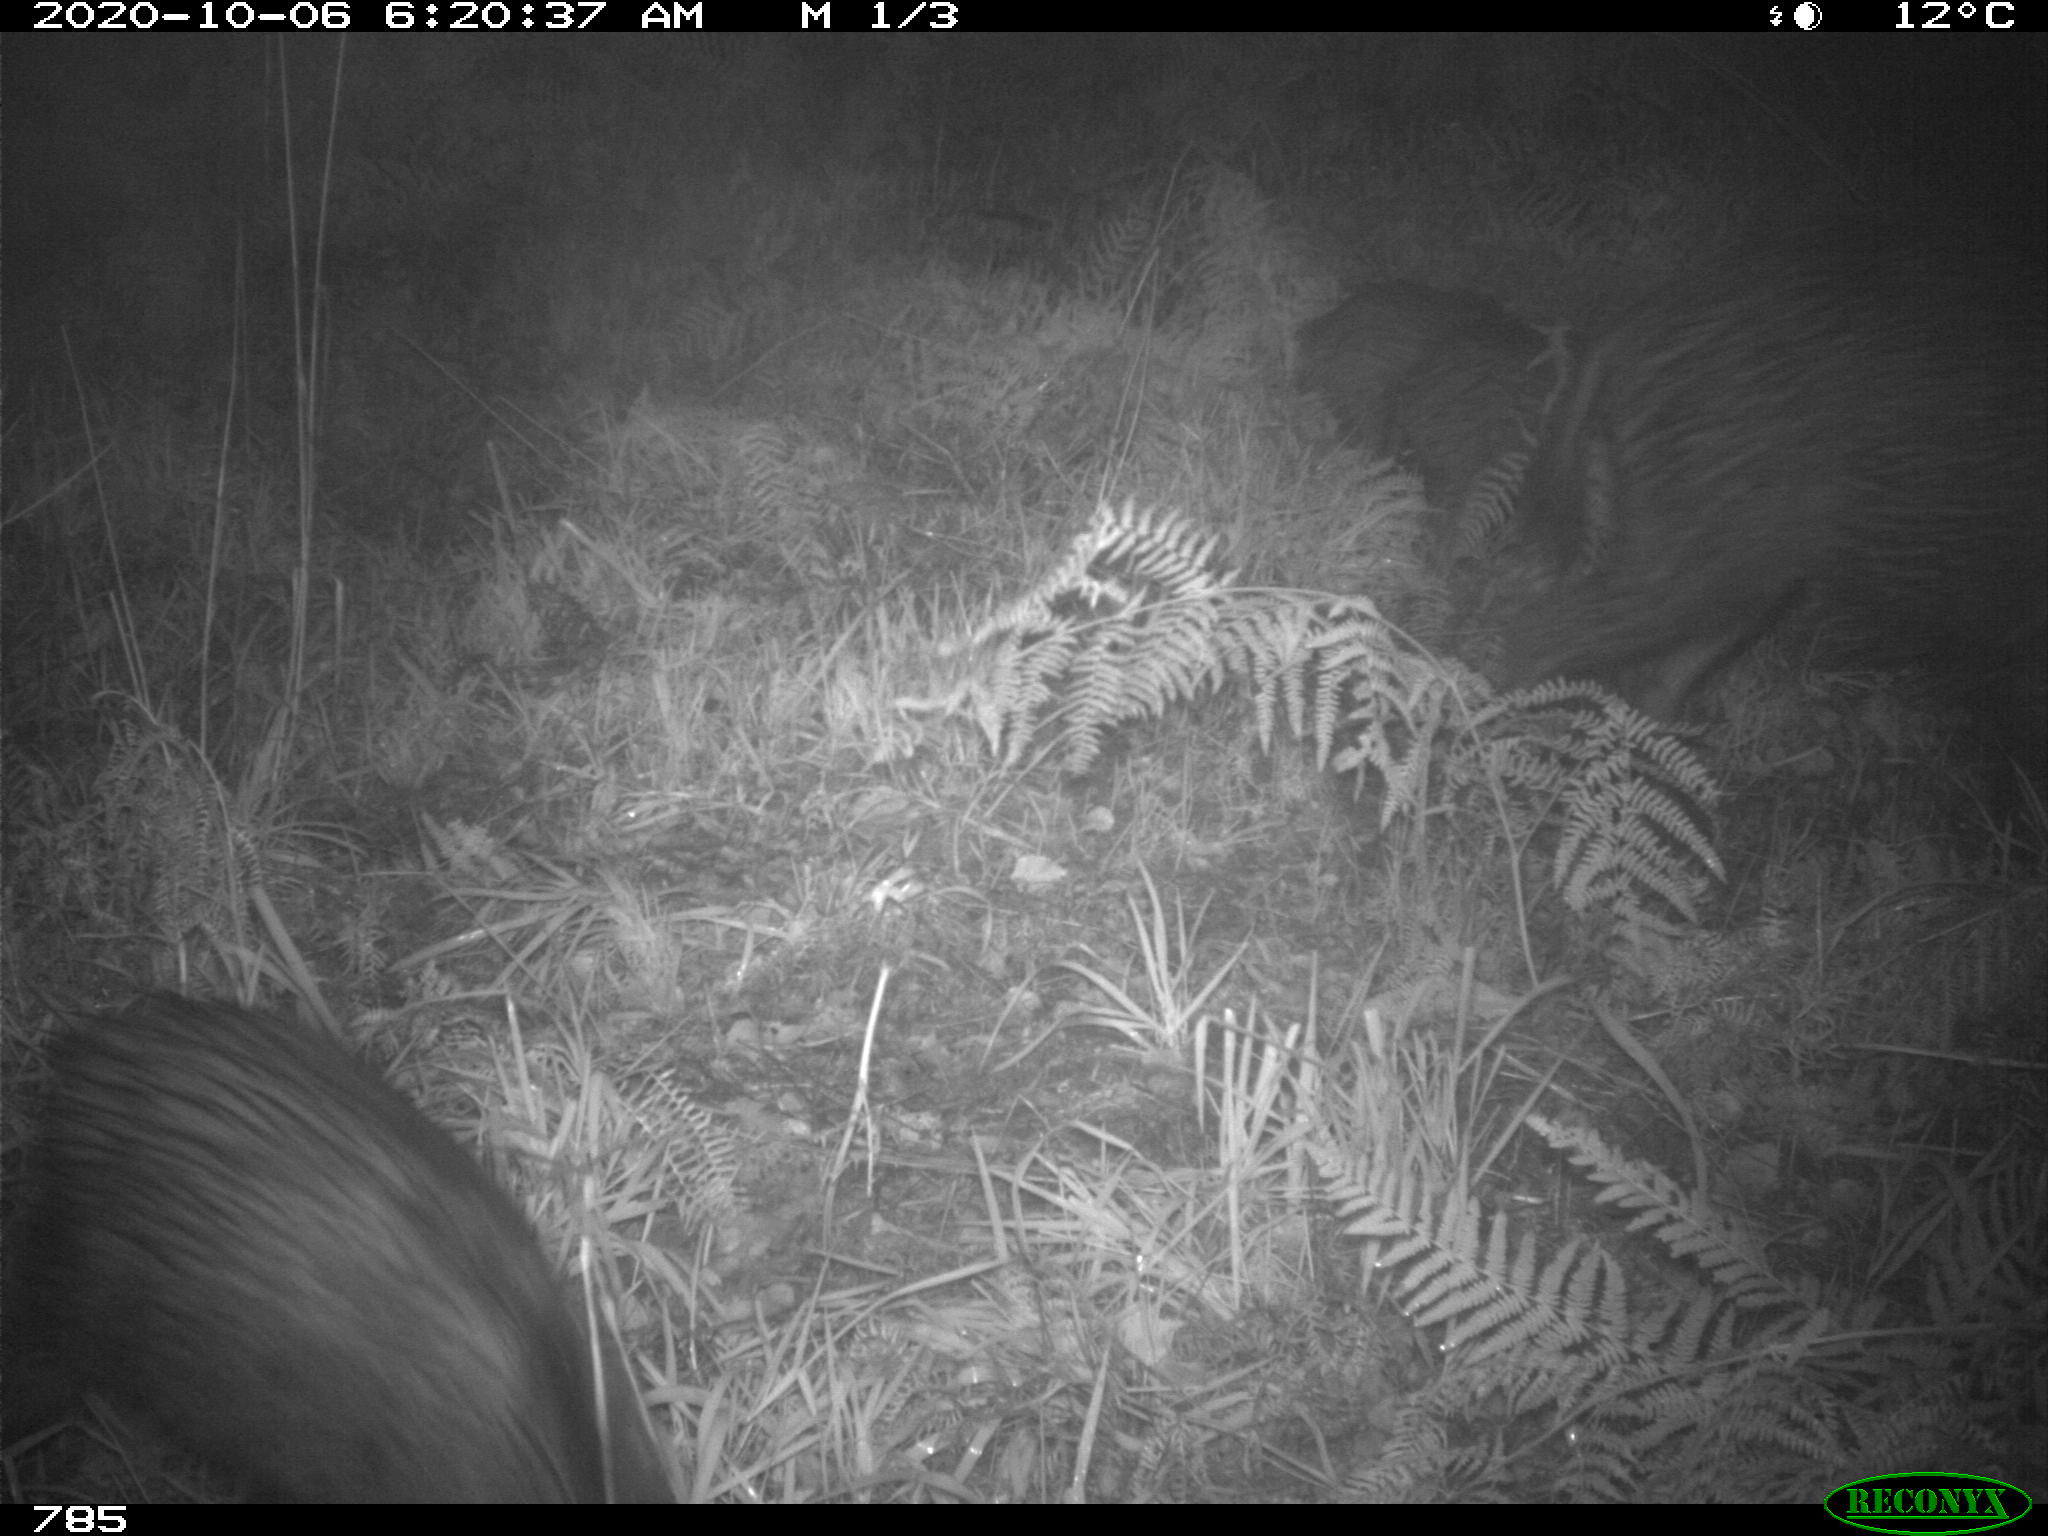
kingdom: Animalia
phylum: Chordata
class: Mammalia
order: Artiodactyla
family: Suidae
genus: Sus
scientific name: Sus scrofa
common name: Wild boar
